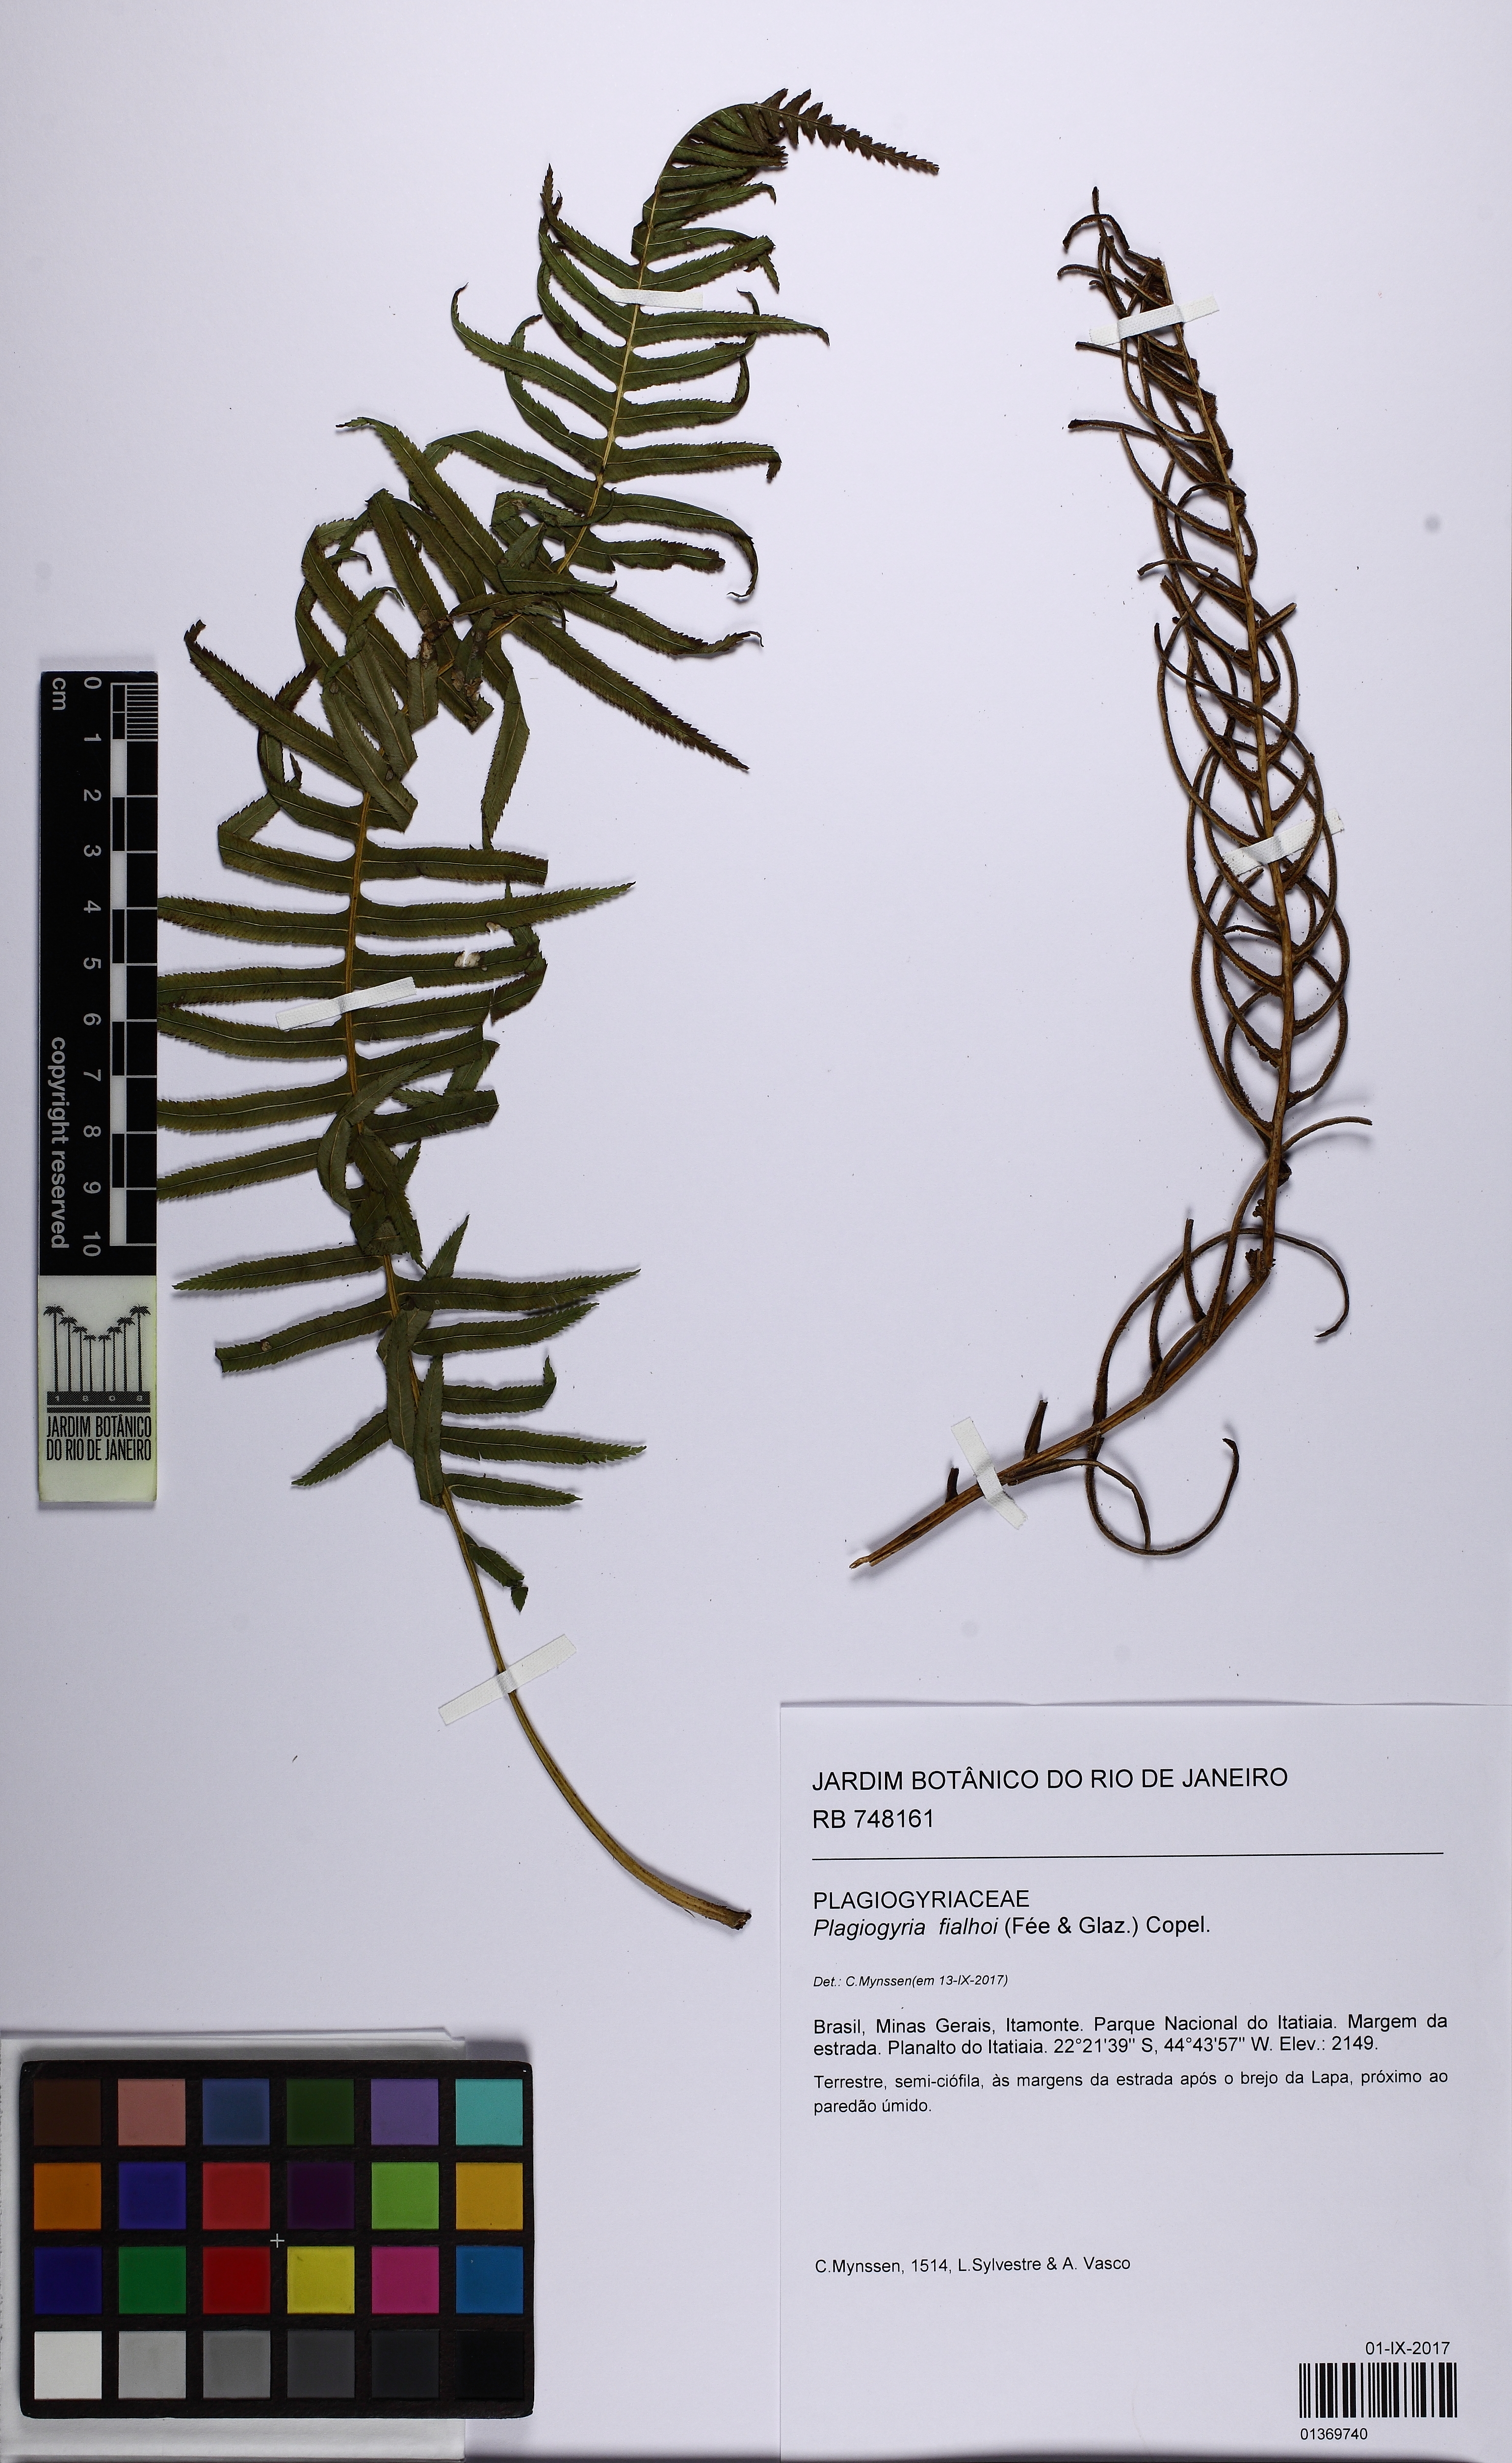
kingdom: Plantae
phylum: Tracheophyta
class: Polypodiopsida
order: Cyatheales
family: Plagiogyriaceae
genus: Plagiogyria
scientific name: Plagiogyria pectinata
